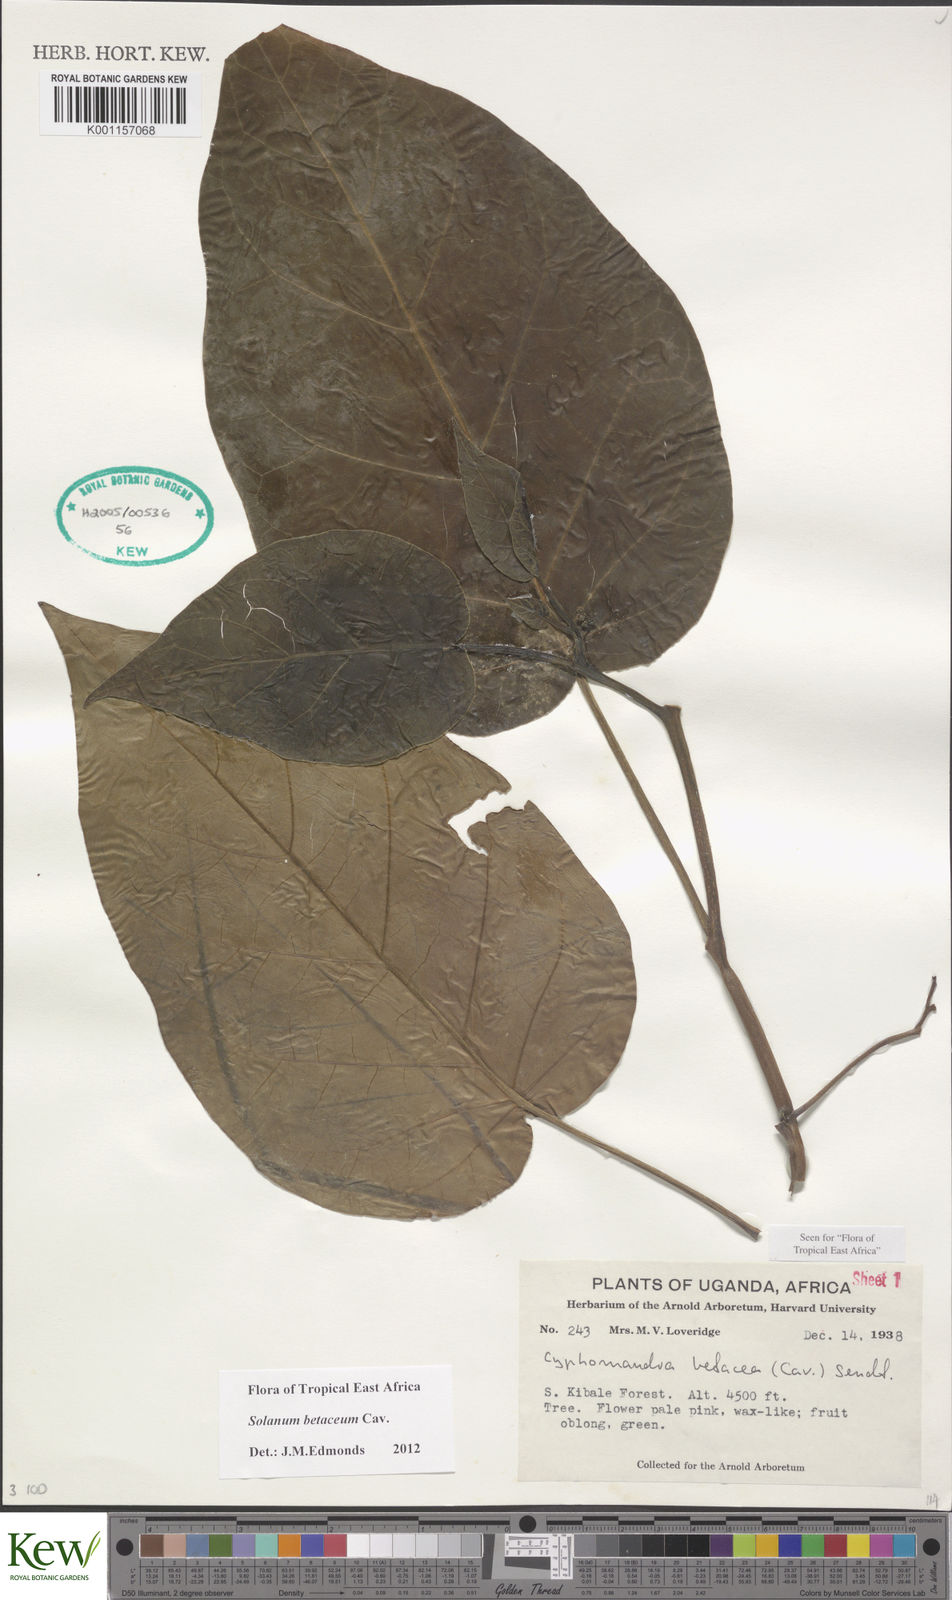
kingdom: Plantae
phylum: Tracheophyta
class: Magnoliopsida
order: Solanales
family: Solanaceae
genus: Solanum
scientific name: Solanum betaceum
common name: Tamarillo
